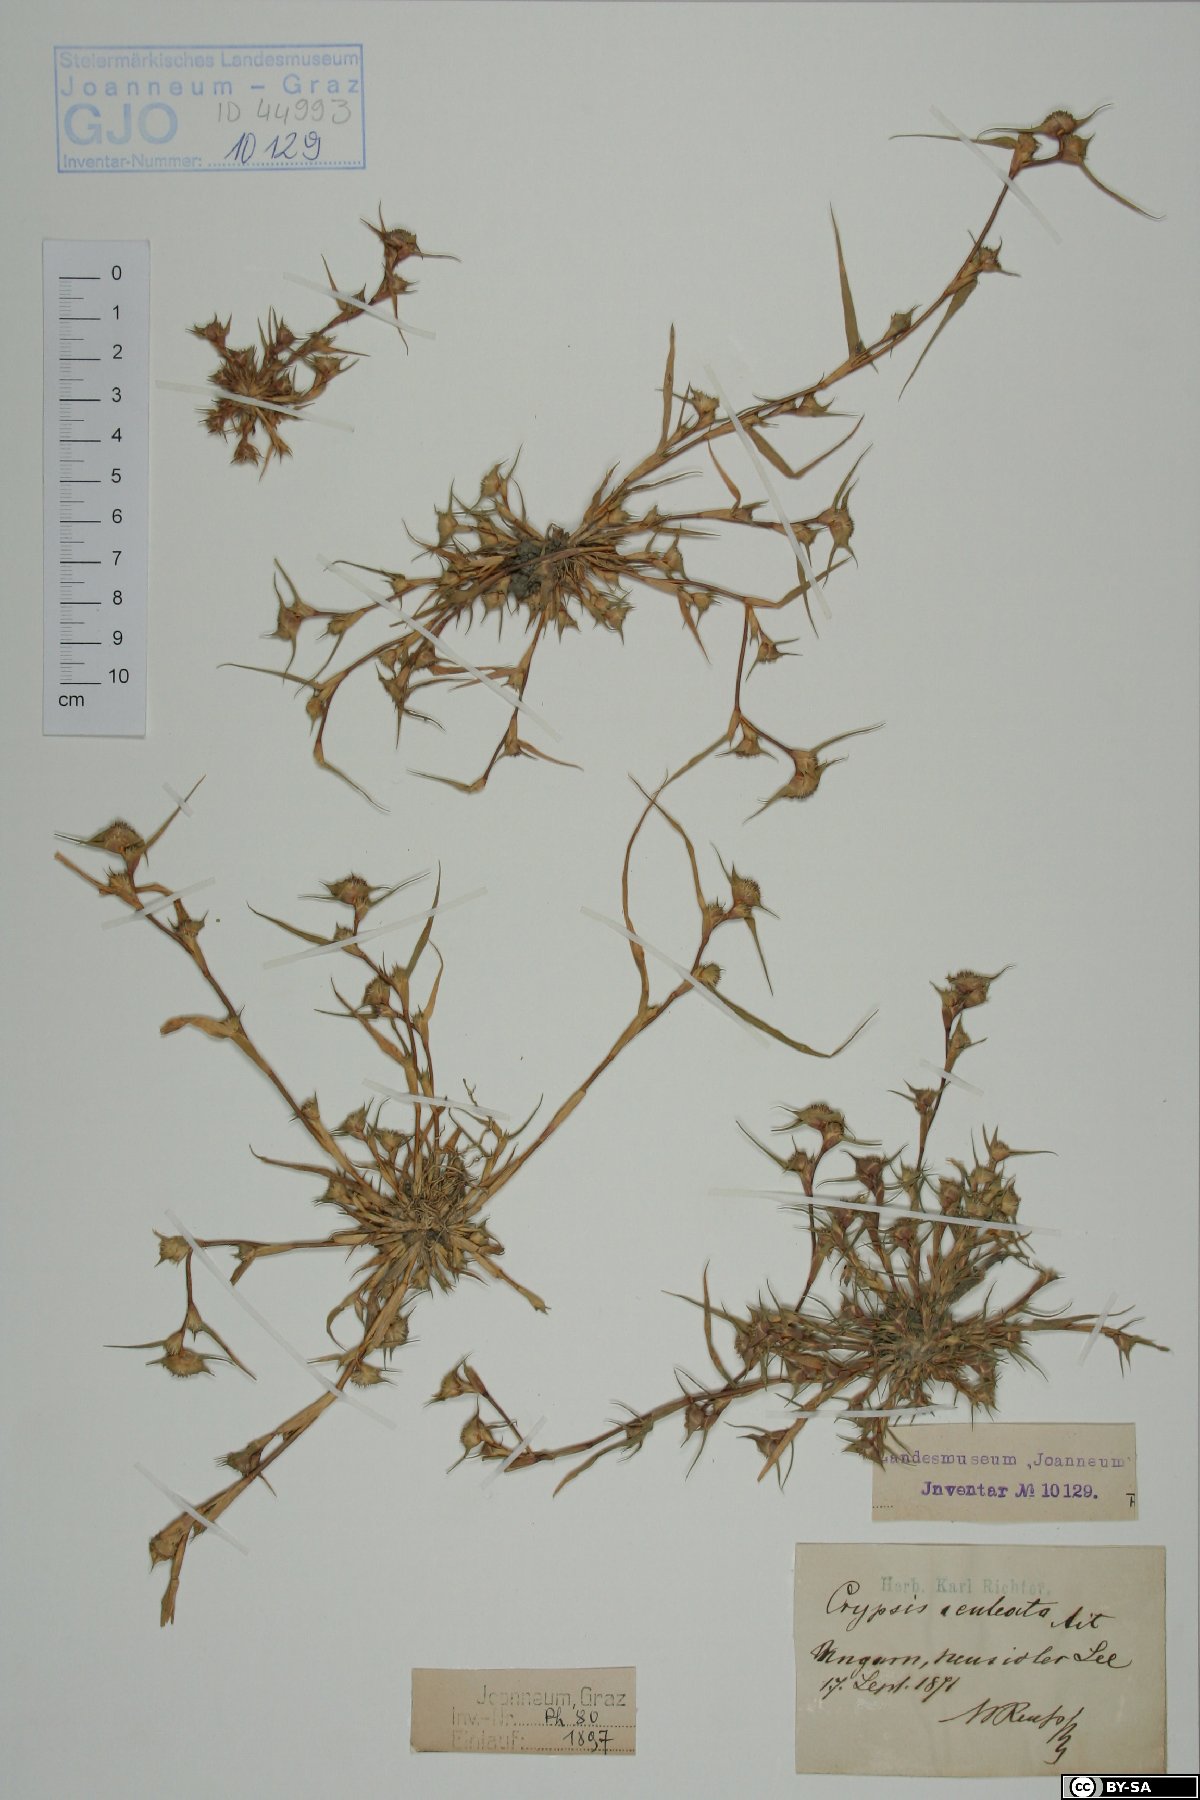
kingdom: Plantae
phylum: Tracheophyta
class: Liliopsida
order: Poales
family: Poaceae
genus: Sporobolus
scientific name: Sporobolus aculeatus
